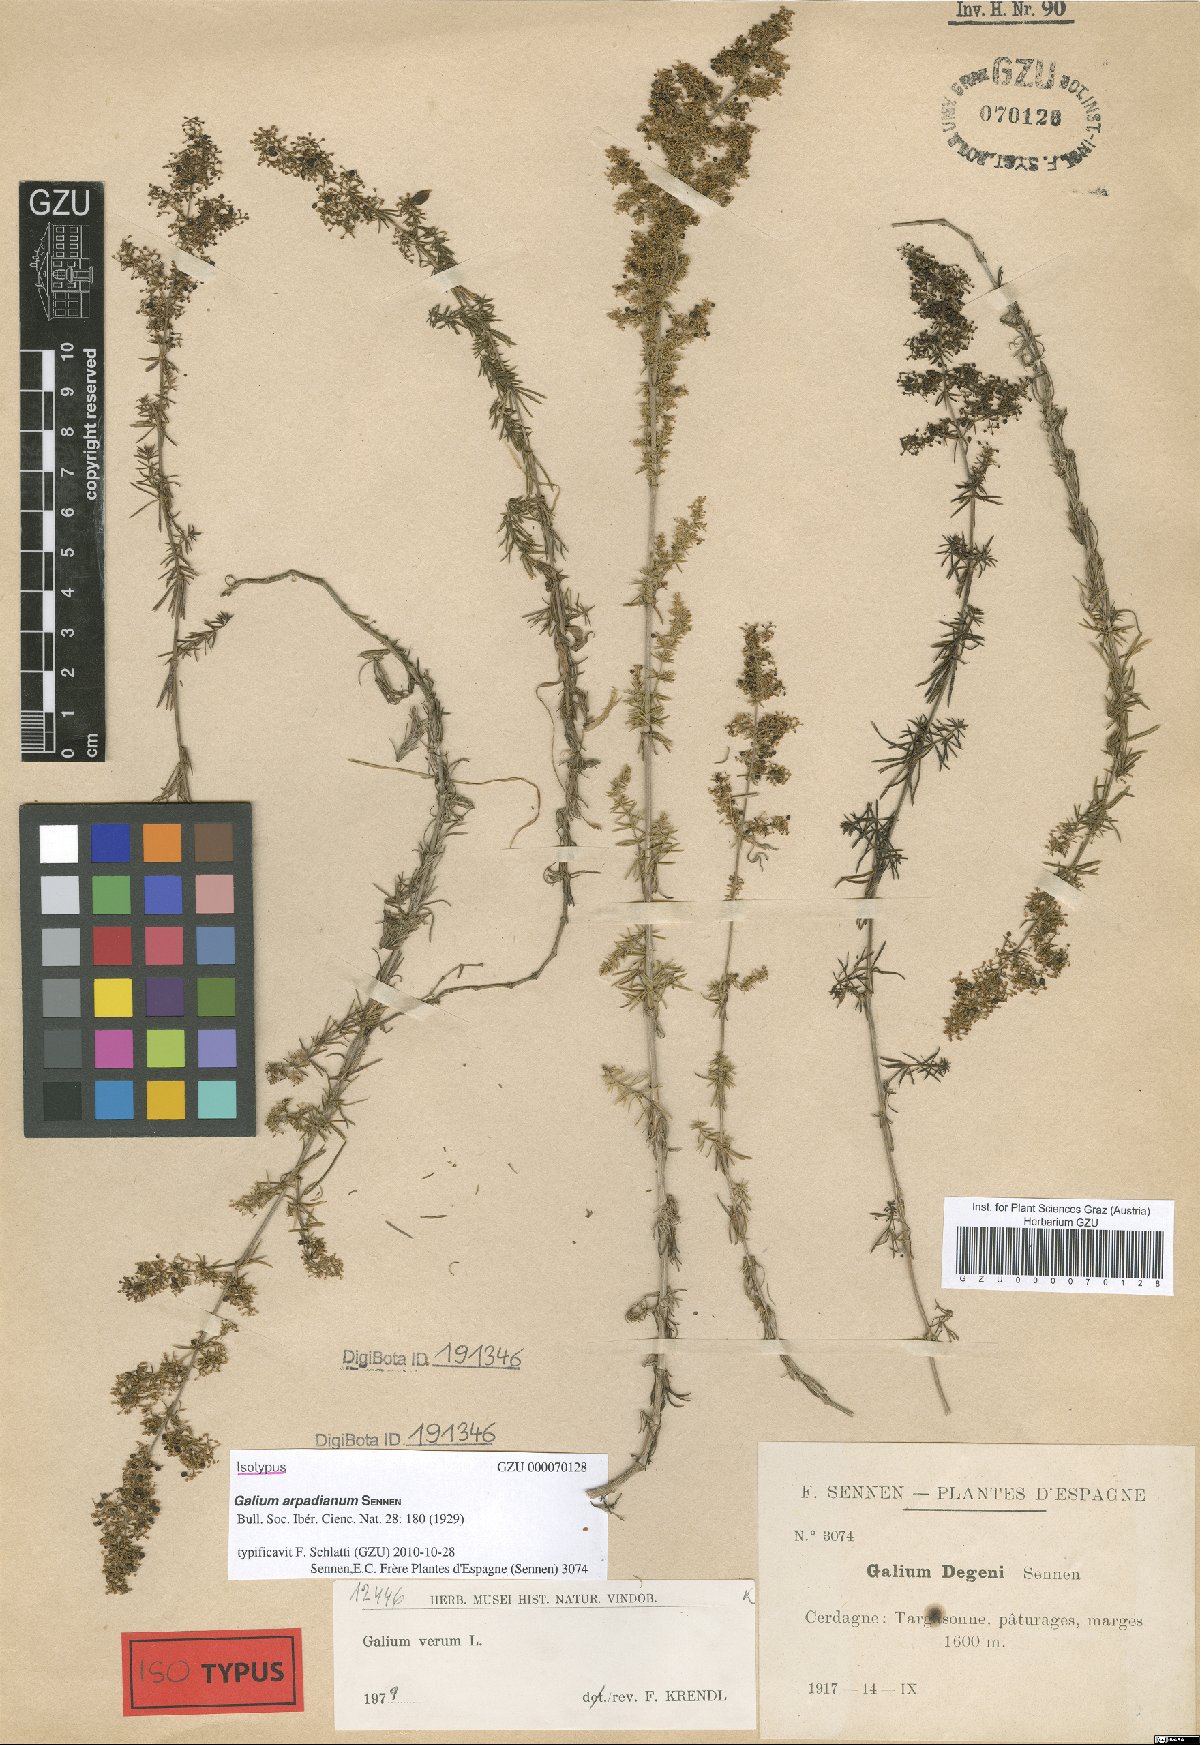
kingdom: Plantae
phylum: Tracheophyta
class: Magnoliopsida
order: Gentianales
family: Rubiaceae
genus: Galium
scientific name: Galium arpadianum
